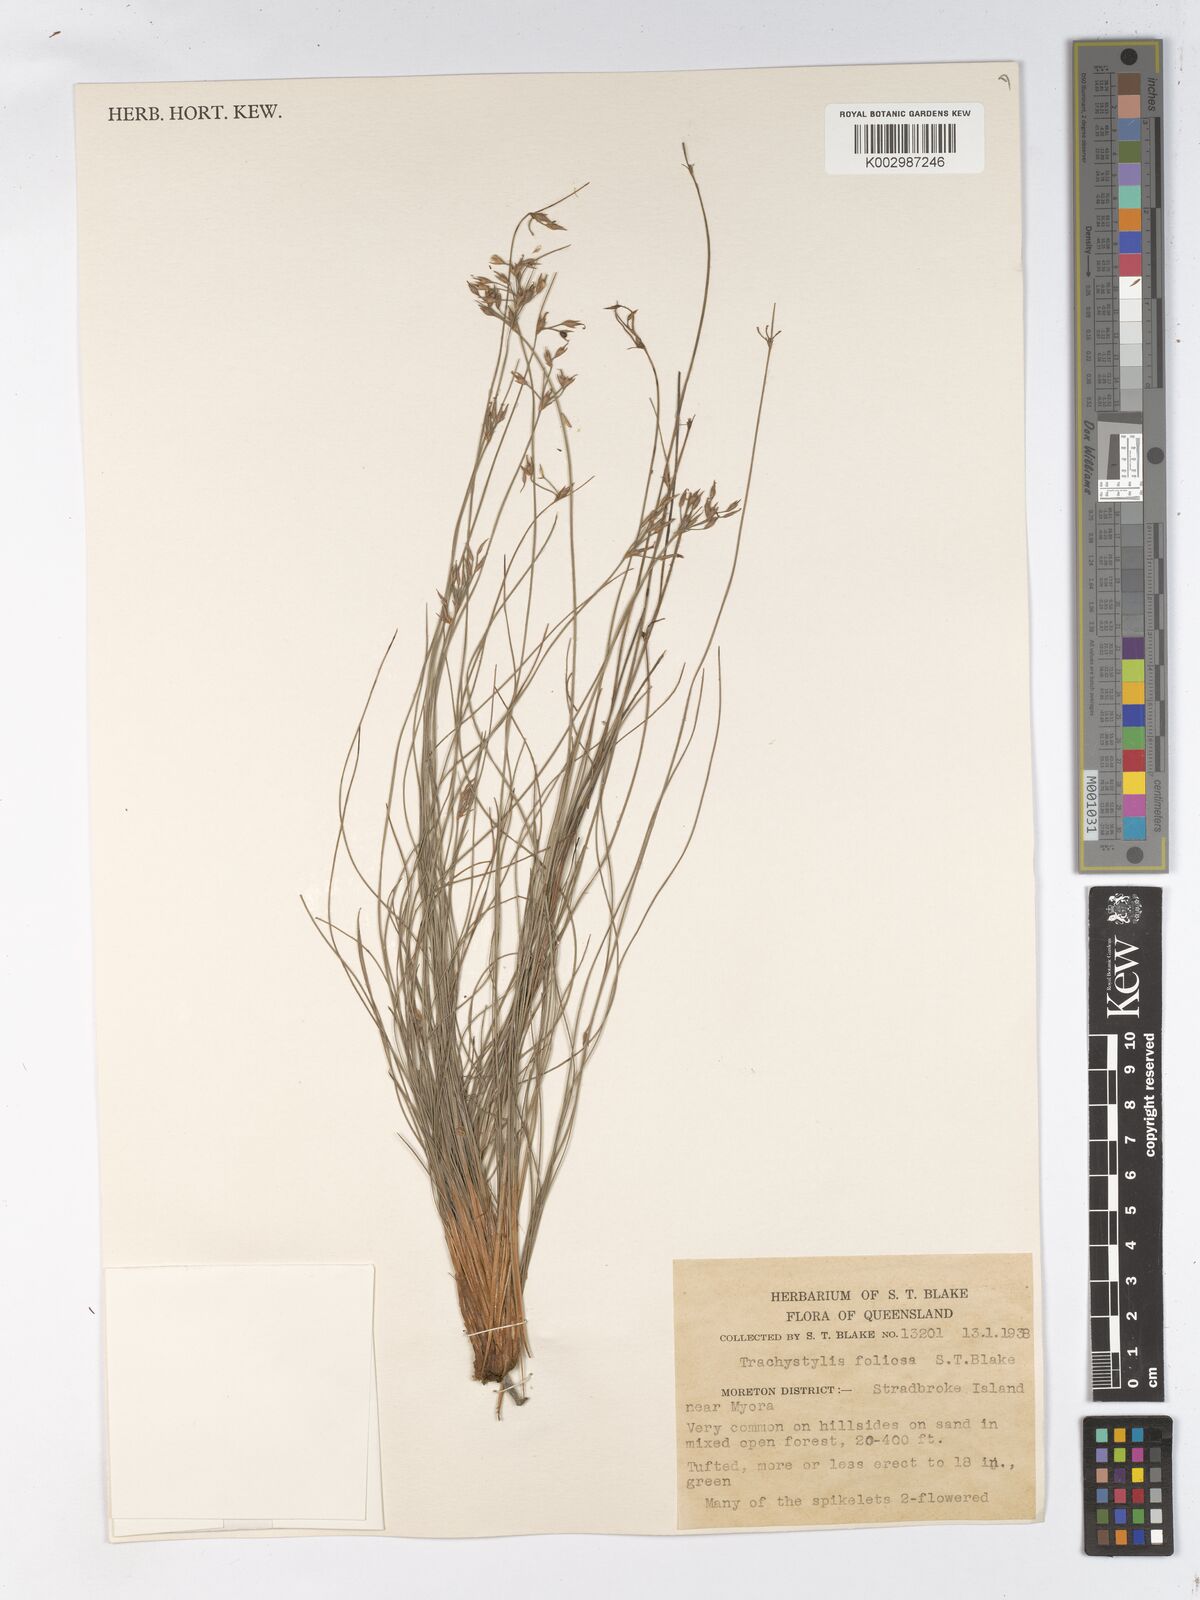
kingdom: Plantae
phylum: Tracheophyta
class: Liliopsida
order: Poales
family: Cyperaceae
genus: Trachystylis
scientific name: Trachystylis stradbrokensis
